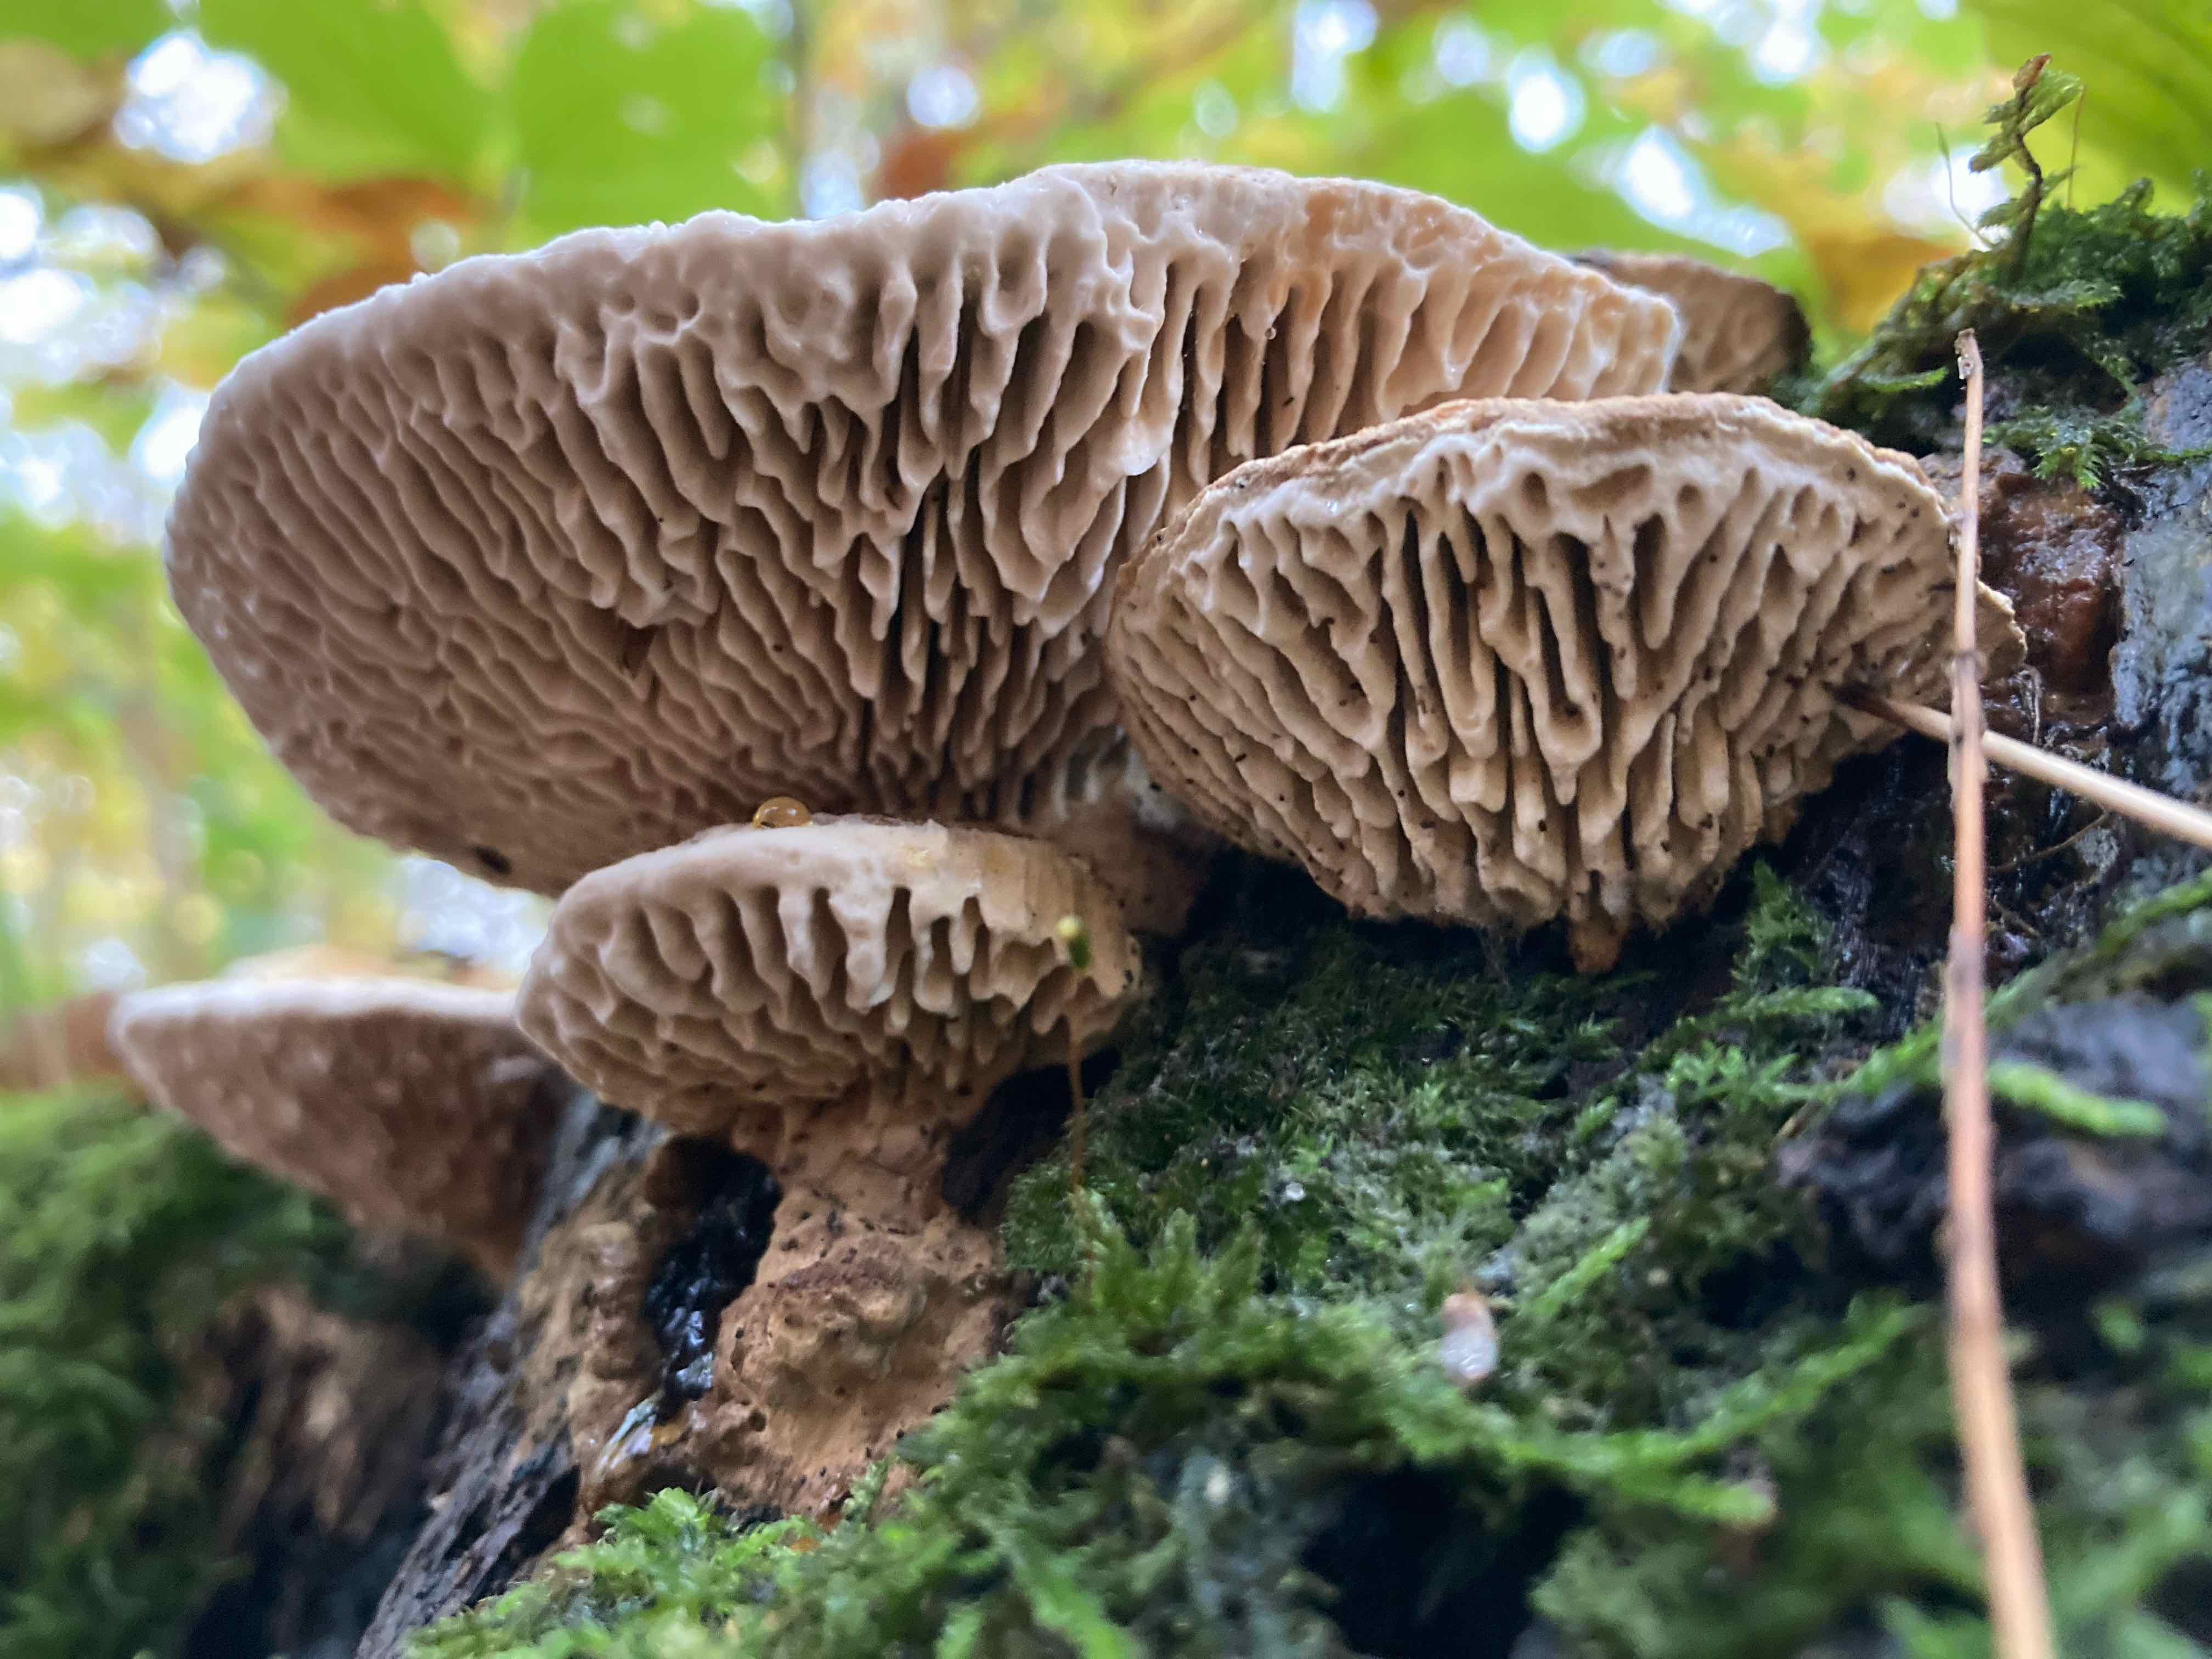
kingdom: Fungi
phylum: Basidiomycota
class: Agaricomycetes
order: Polyporales
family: Fomitopsidaceae
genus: Daedalea
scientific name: Daedalea quercina
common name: ege-labyrintsvamp
